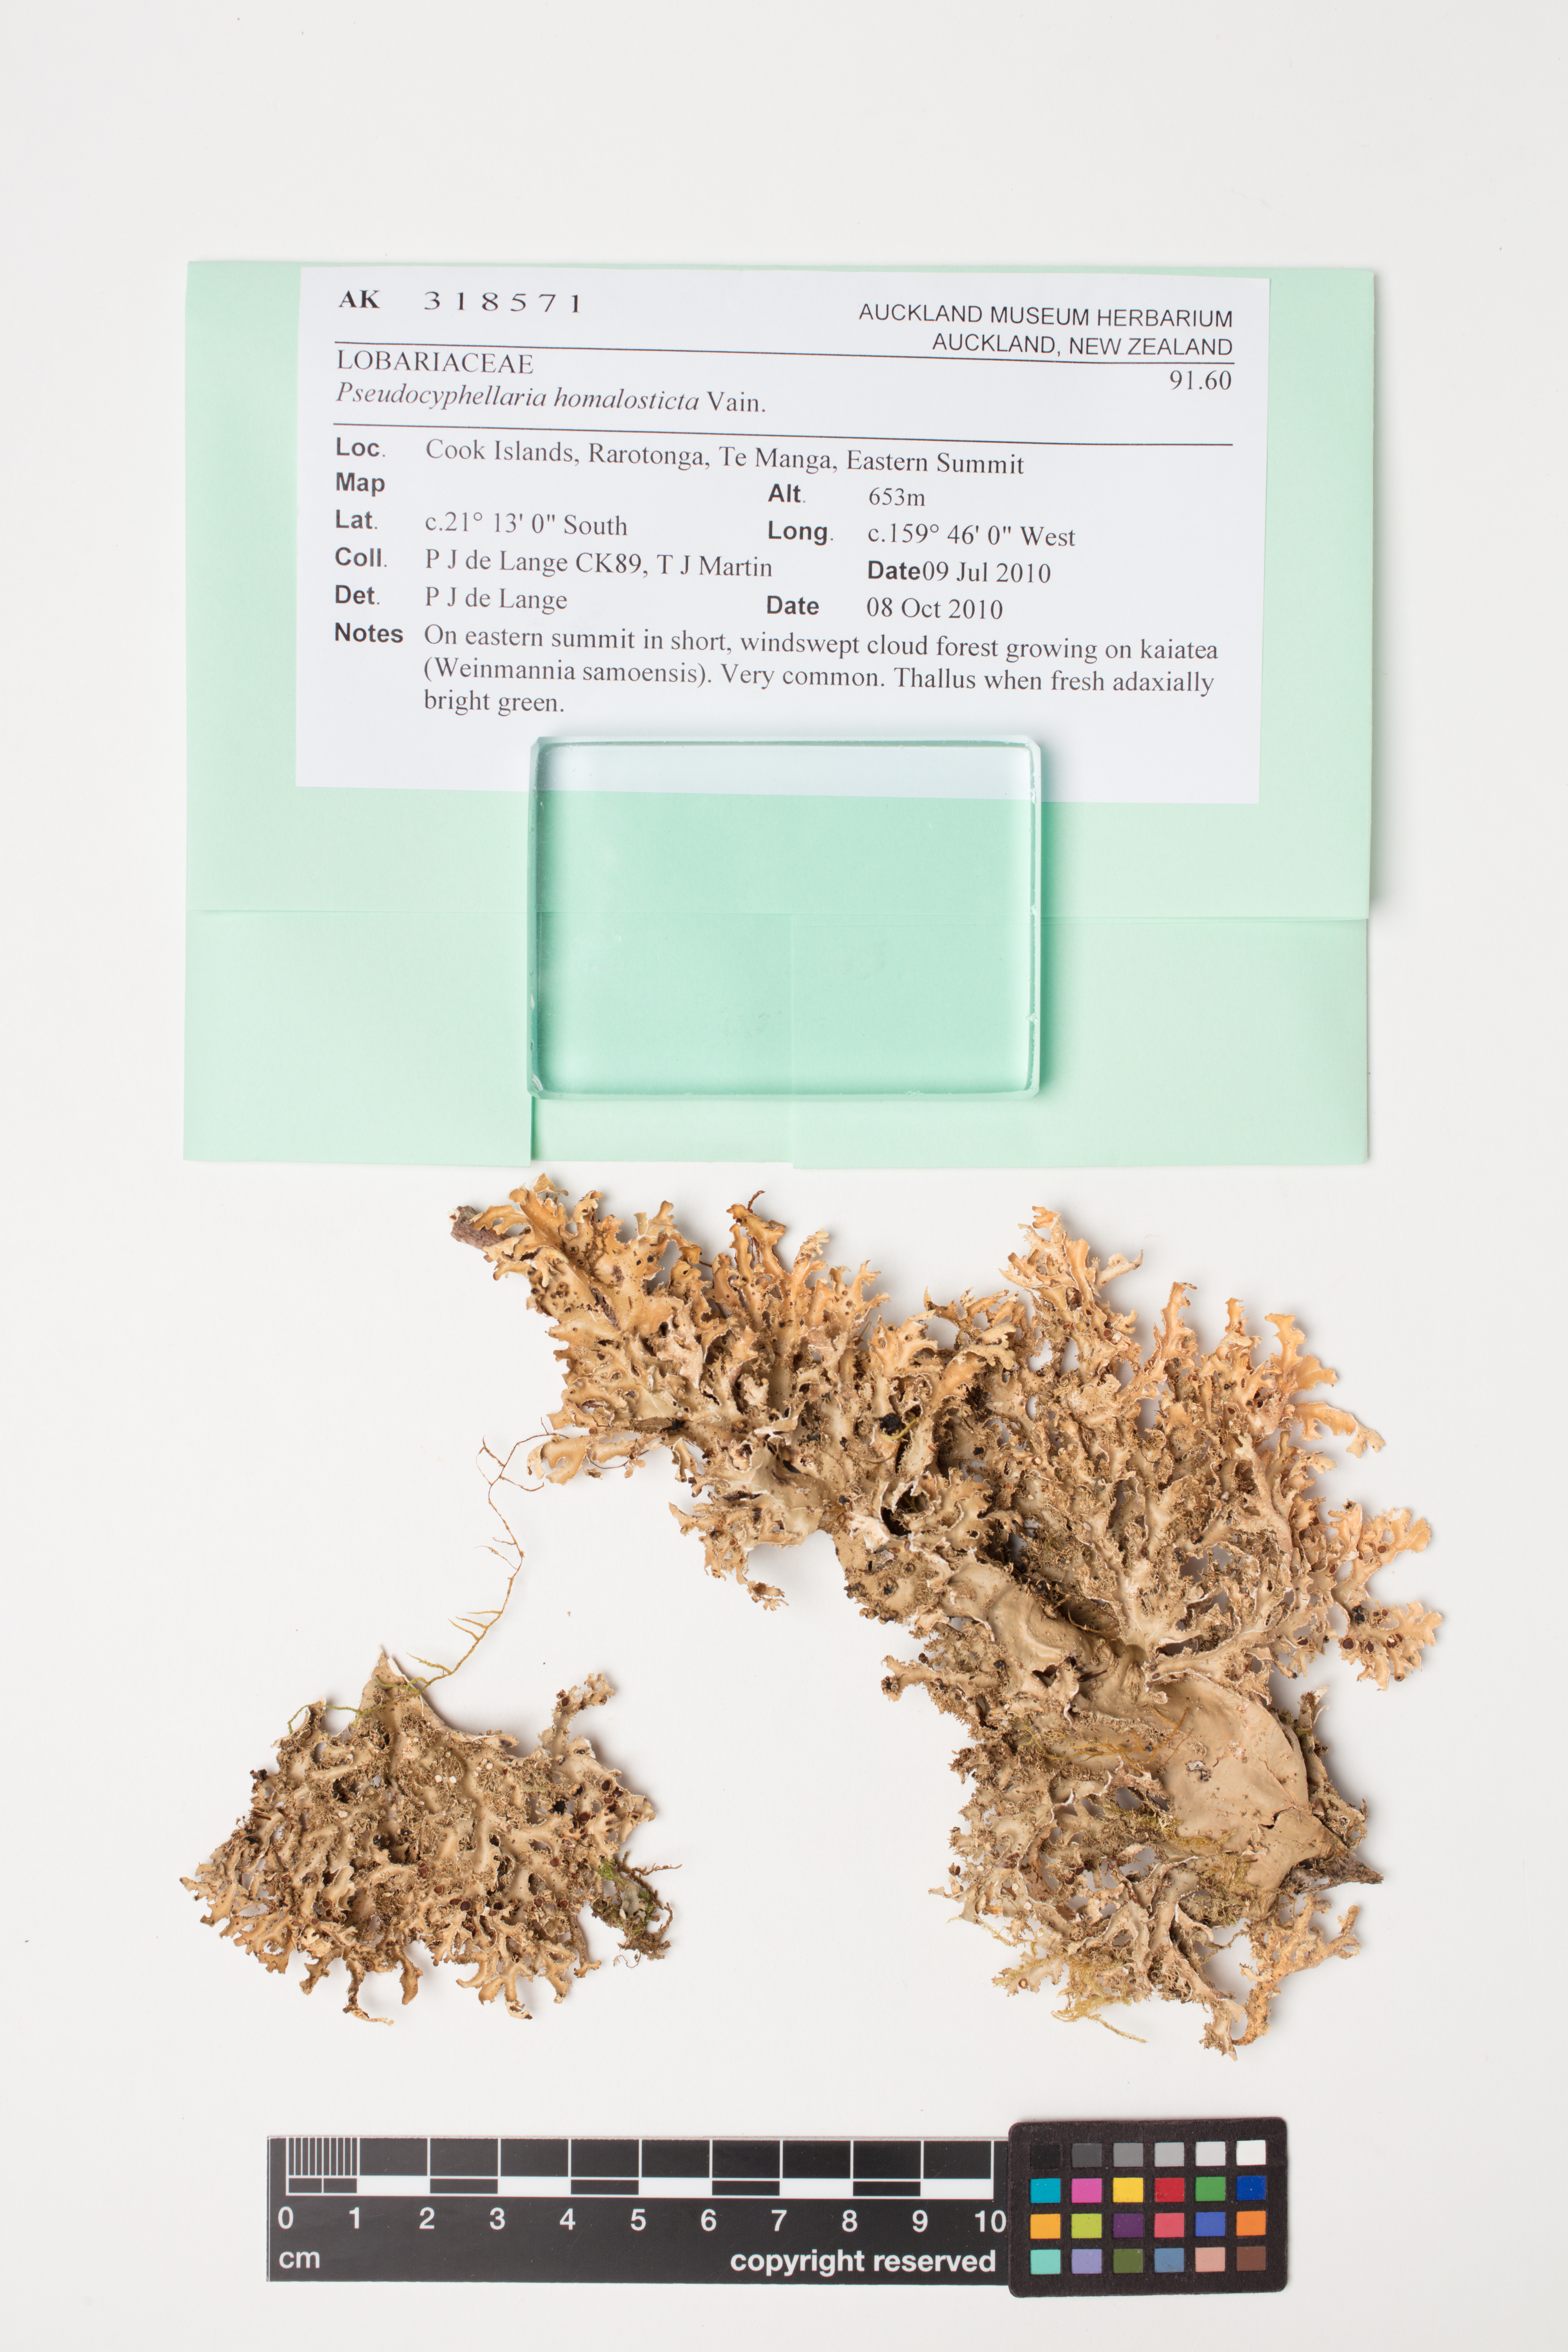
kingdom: Fungi
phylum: Ascomycota
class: Lecanoromycetes
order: Peltigerales
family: Lobariaceae
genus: Pseudocyphellaria
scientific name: Pseudocyphellaria homalosticta
